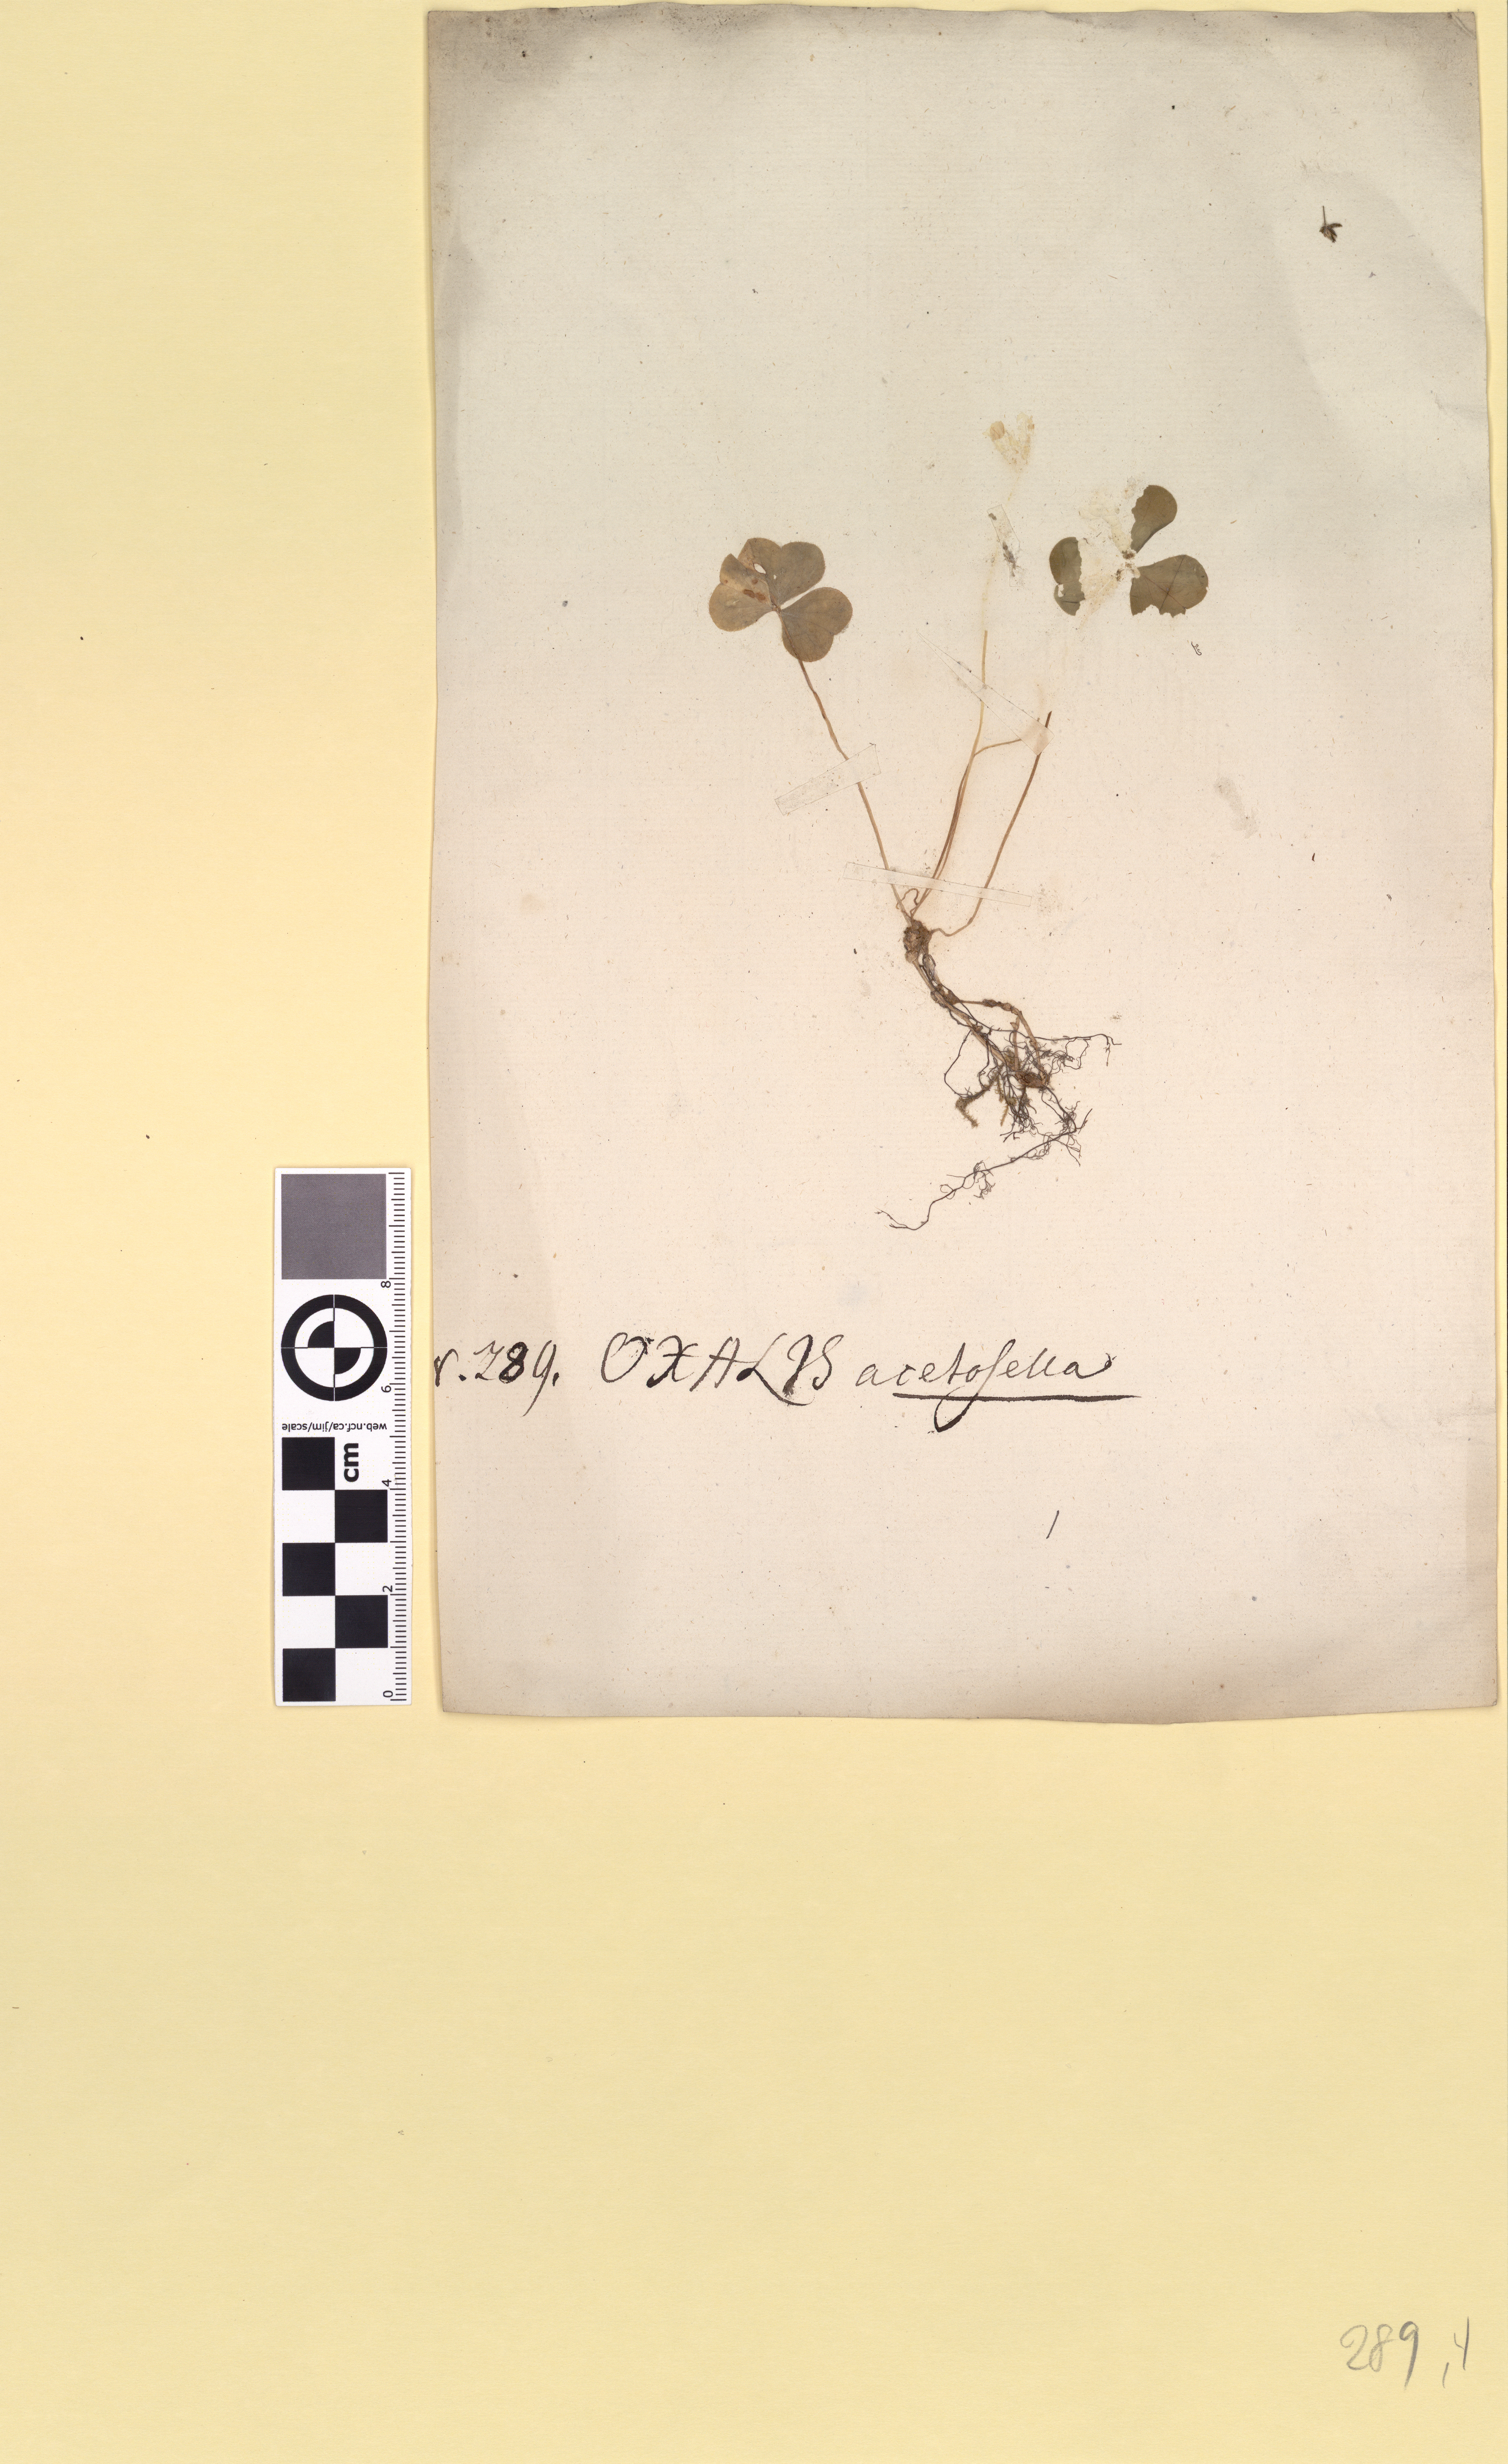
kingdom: Plantae
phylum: Tracheophyta
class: Magnoliopsida
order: Oxalidales
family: Oxalidaceae
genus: Oxalis
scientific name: Oxalis acetosella
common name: Wood-sorrel
